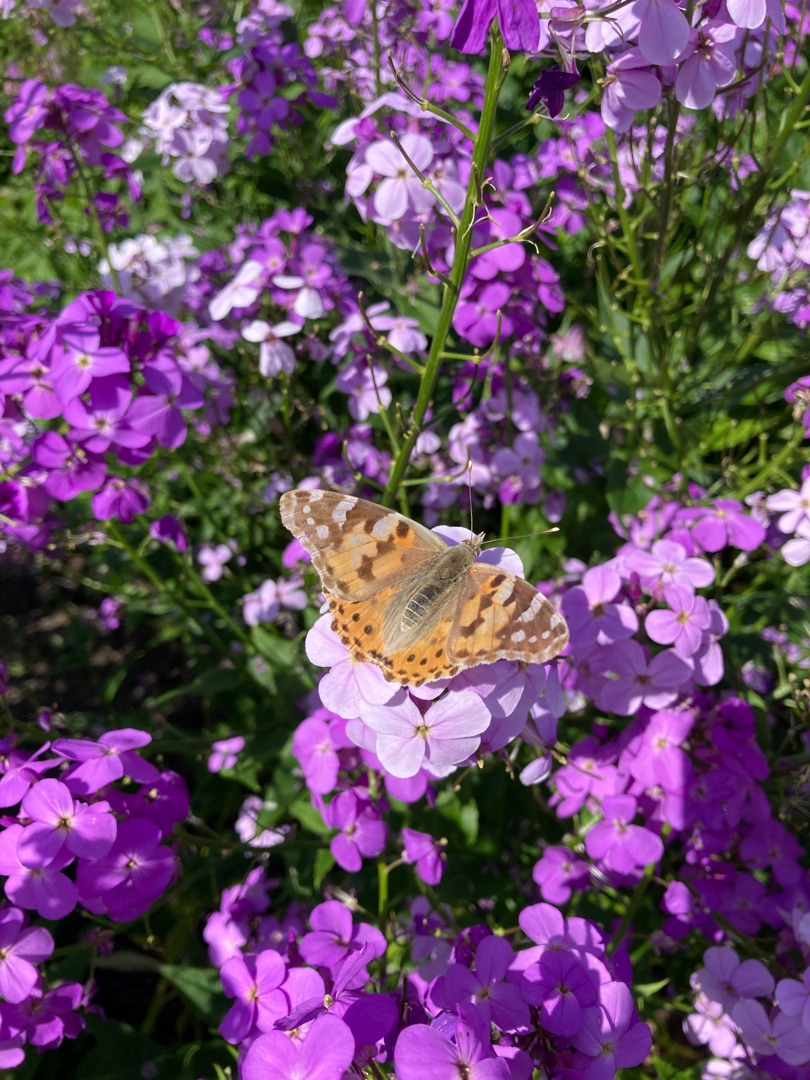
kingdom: Animalia
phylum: Arthropoda
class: Insecta
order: Lepidoptera
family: Nymphalidae
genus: Vanessa
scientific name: Vanessa cardui
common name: Tidselsommerfugl
